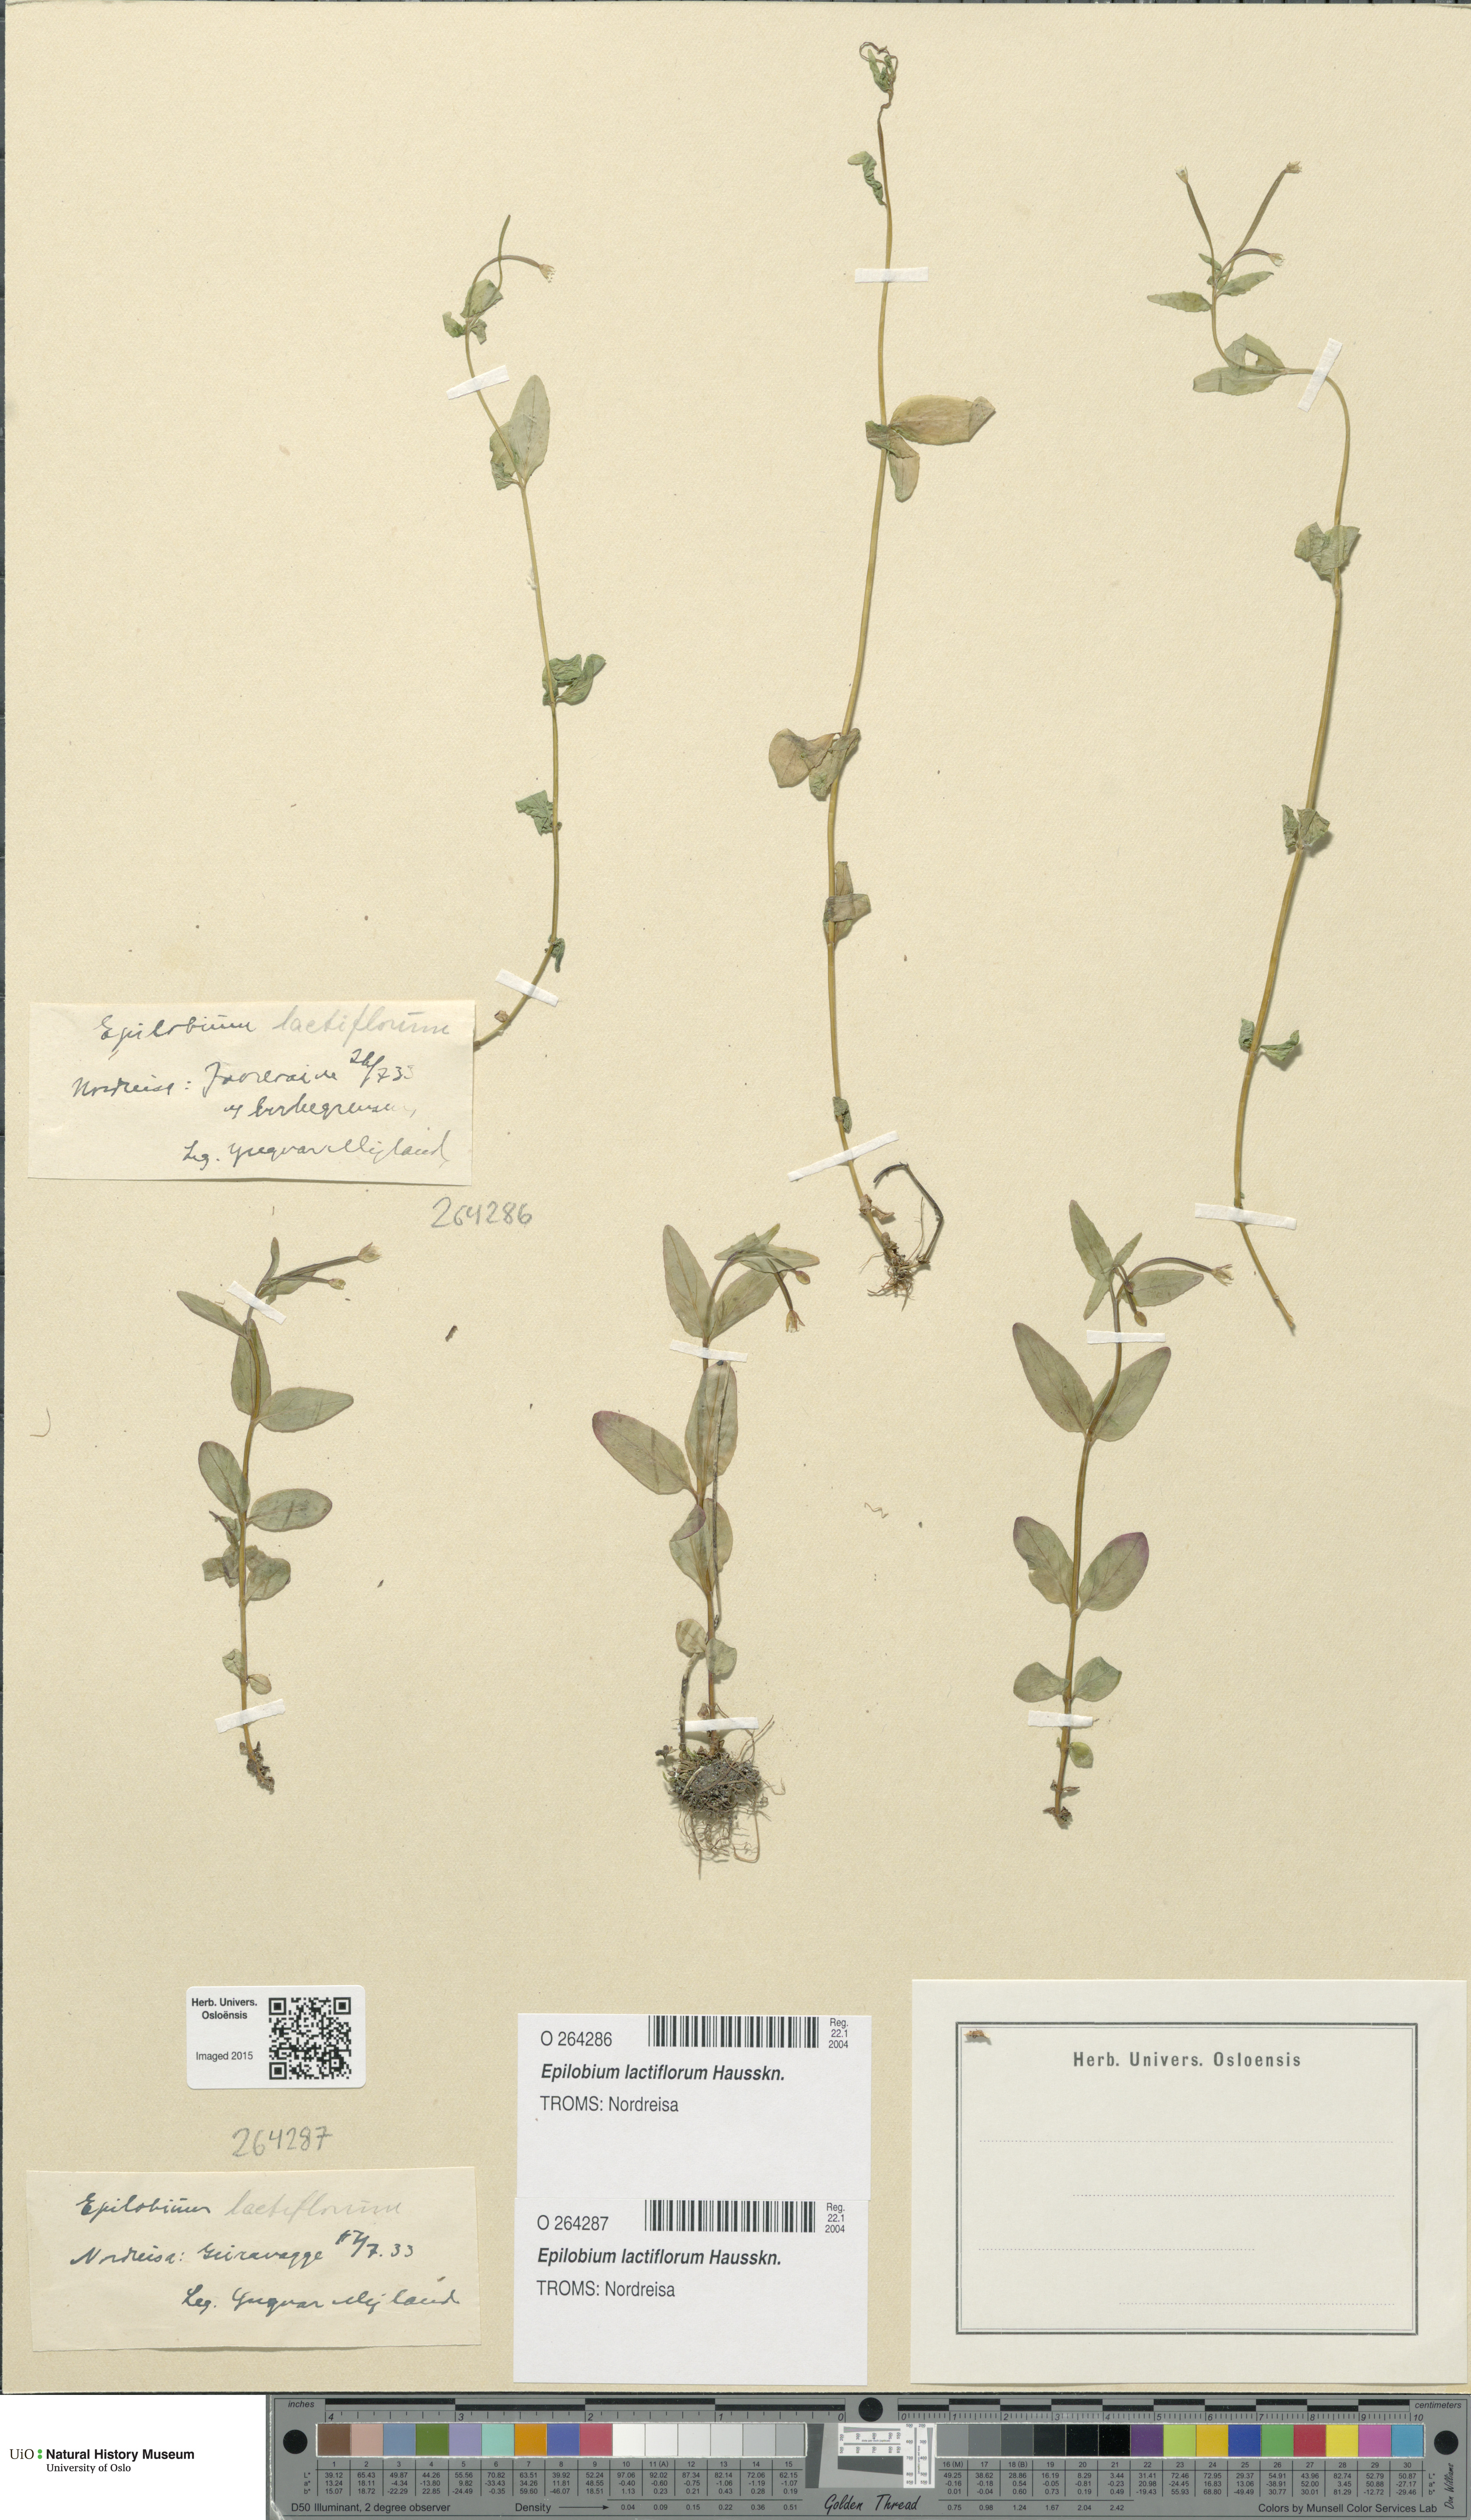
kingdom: Plantae
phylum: Tracheophyta
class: Magnoliopsida
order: Myrtales
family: Onagraceae
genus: Epilobium
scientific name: Epilobium lactiflorum
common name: Milkflower willowherb
